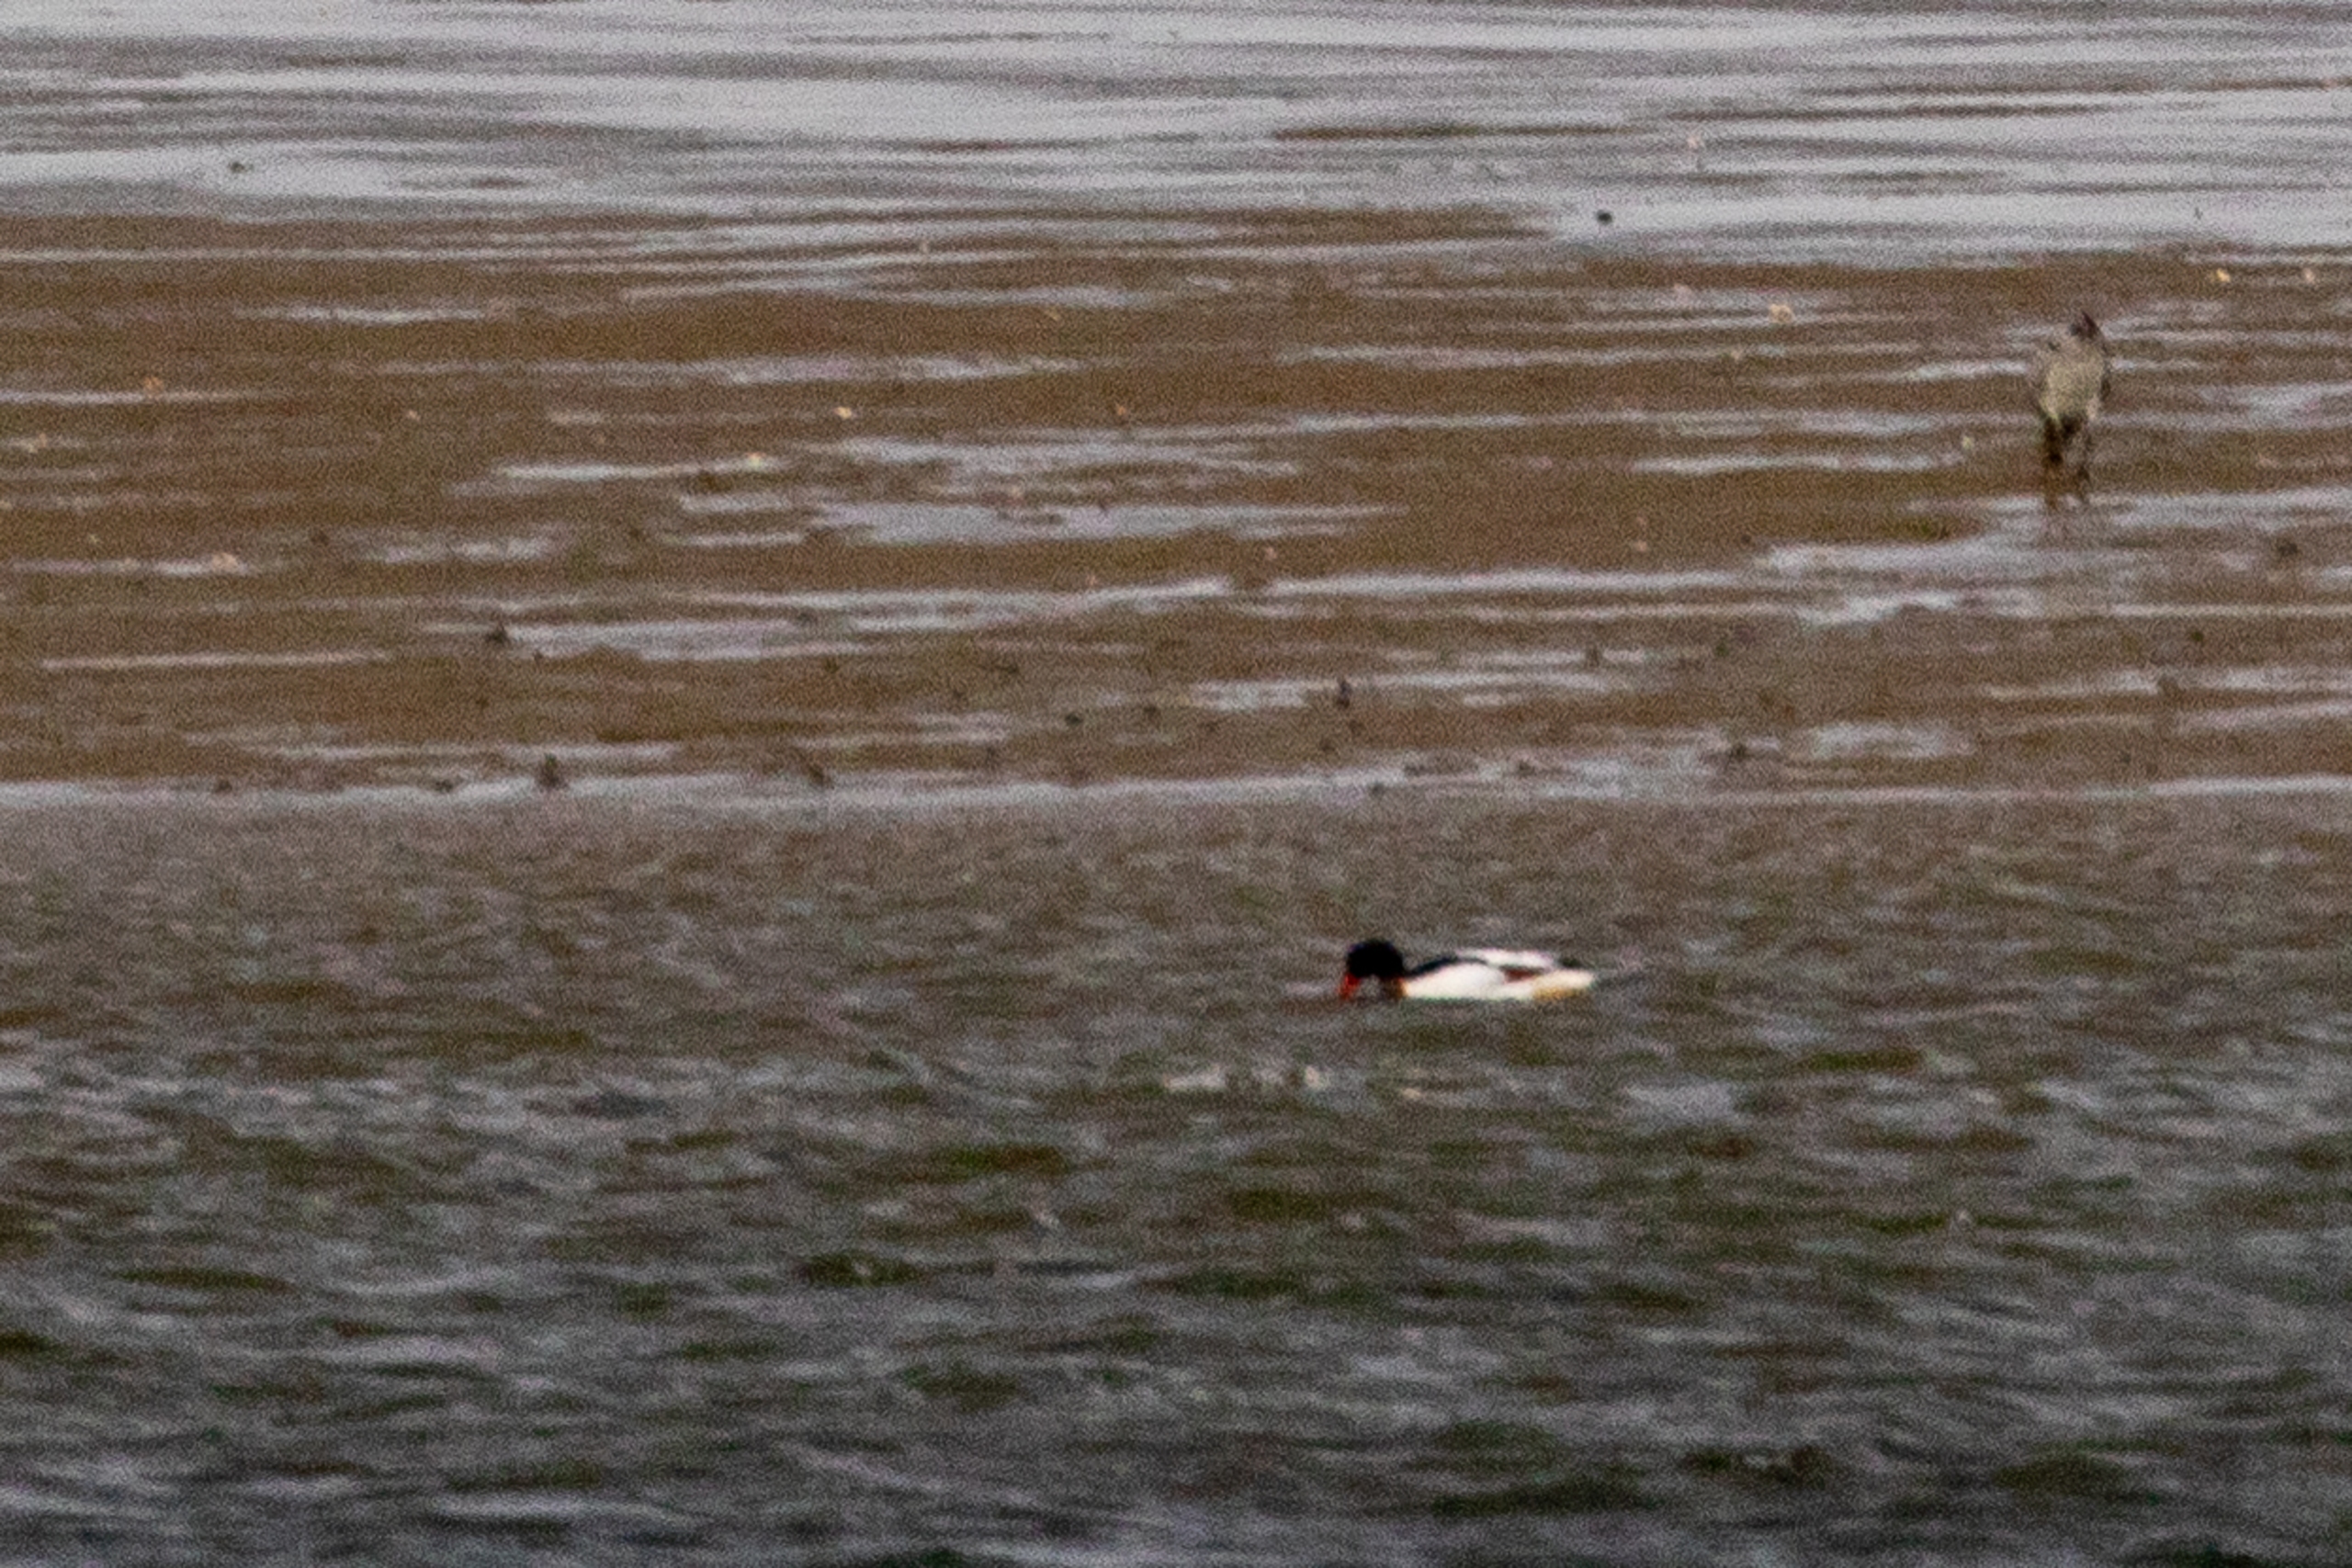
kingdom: Animalia
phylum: Chordata
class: Aves
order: Anseriformes
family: Anatidae
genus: Tadorna
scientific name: Tadorna tadorna
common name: Gravand
